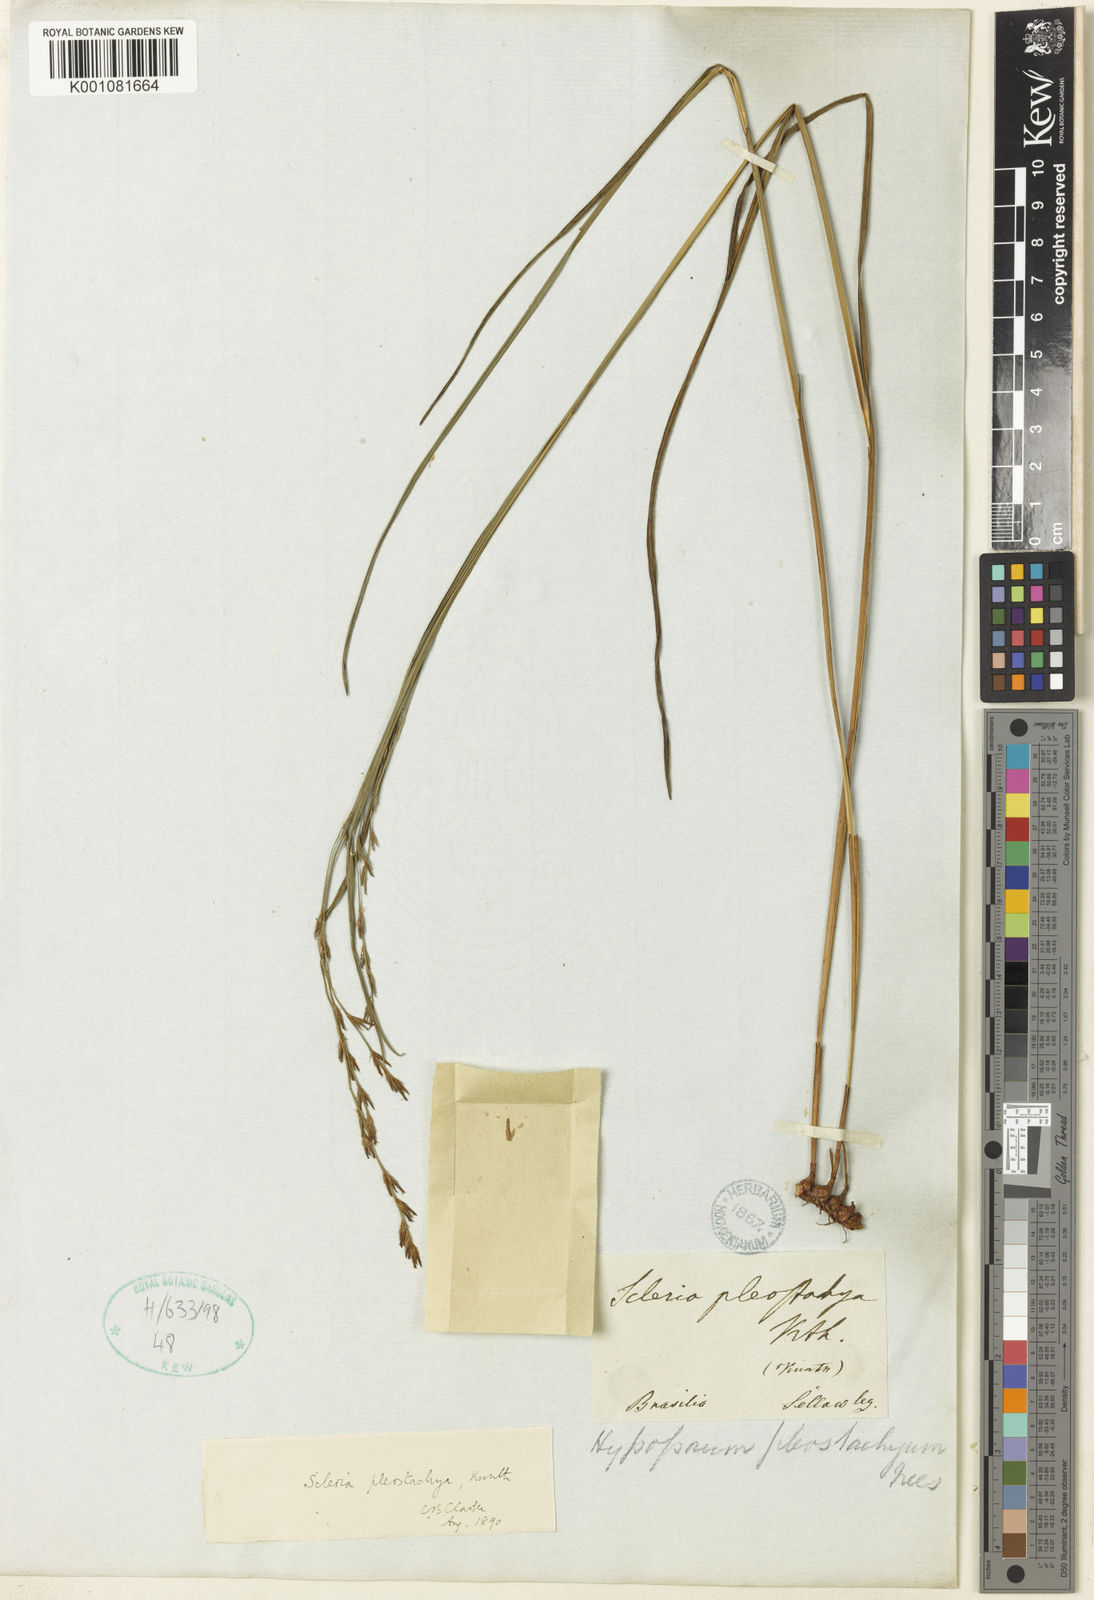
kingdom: Plantae
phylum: Tracheophyta
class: Liliopsida
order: Poales
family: Cyperaceae
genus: Scleria
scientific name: Scleria spicata
